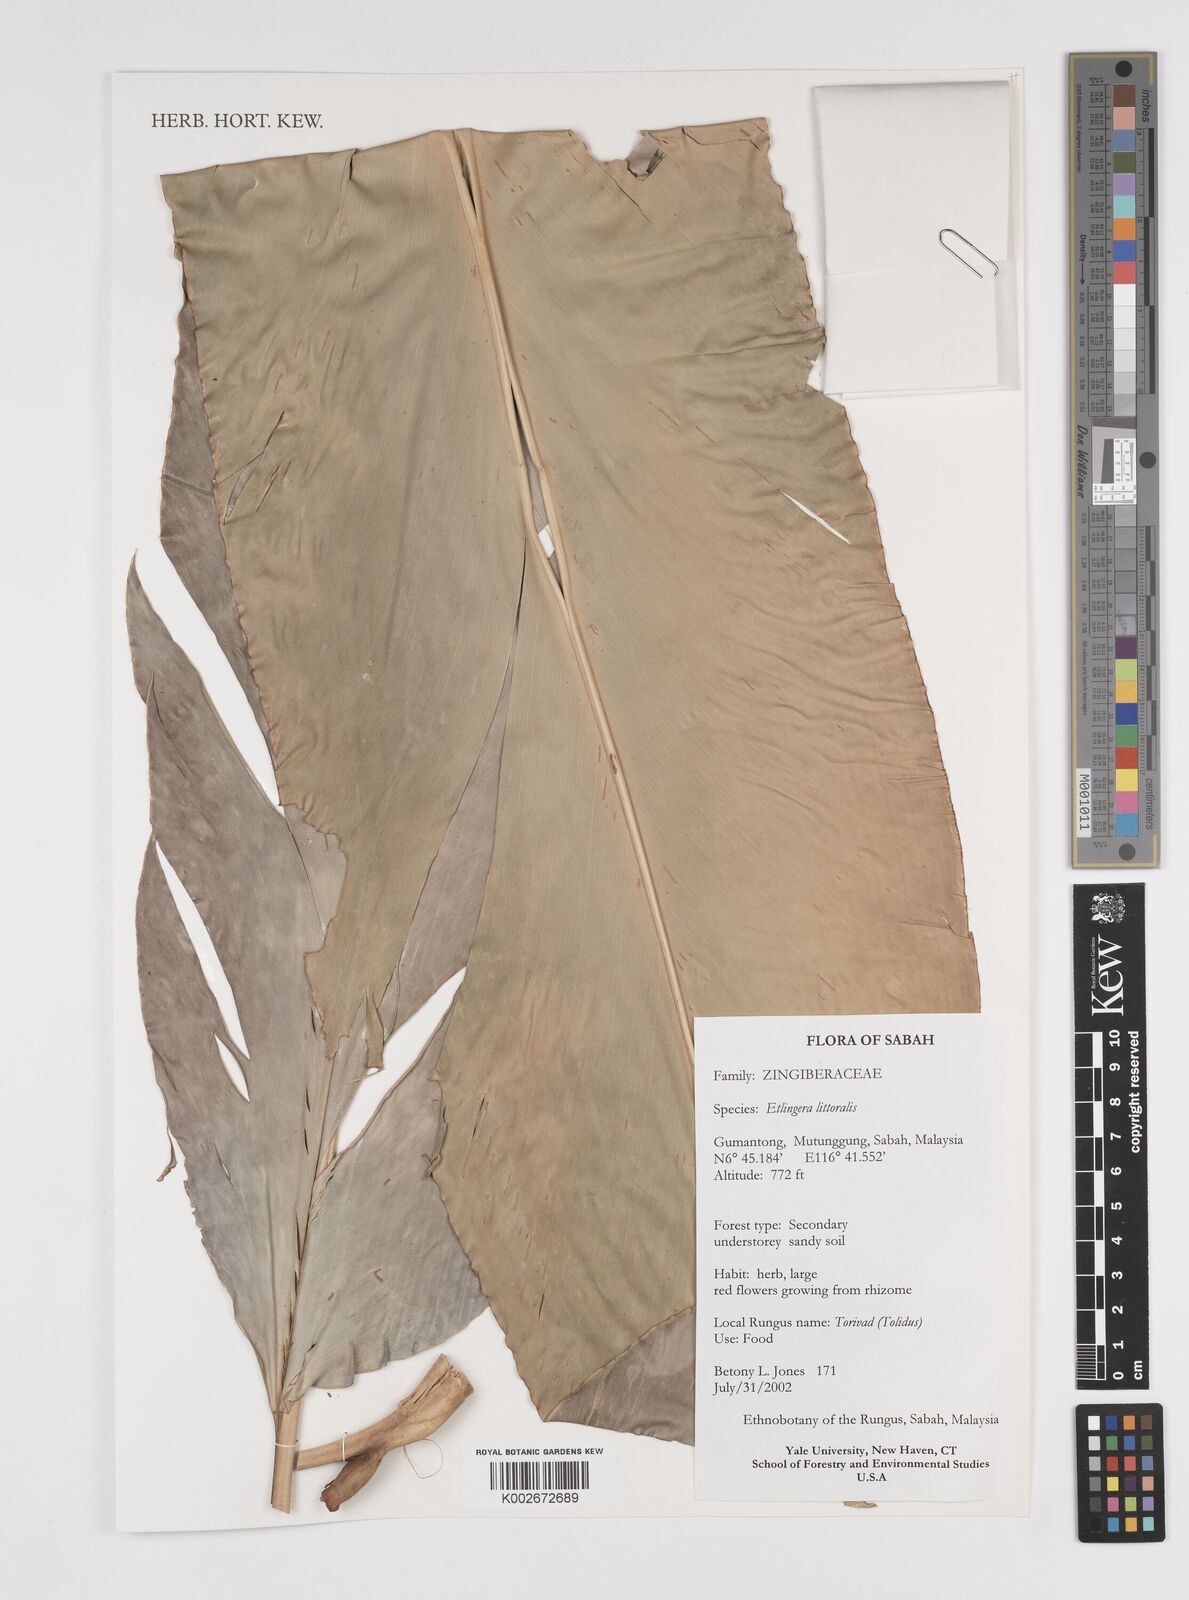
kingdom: Plantae
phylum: Tracheophyta
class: Liliopsida
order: Zingiberales
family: Zingiberaceae
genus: Etlingera
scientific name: Etlingera megalocheilos
